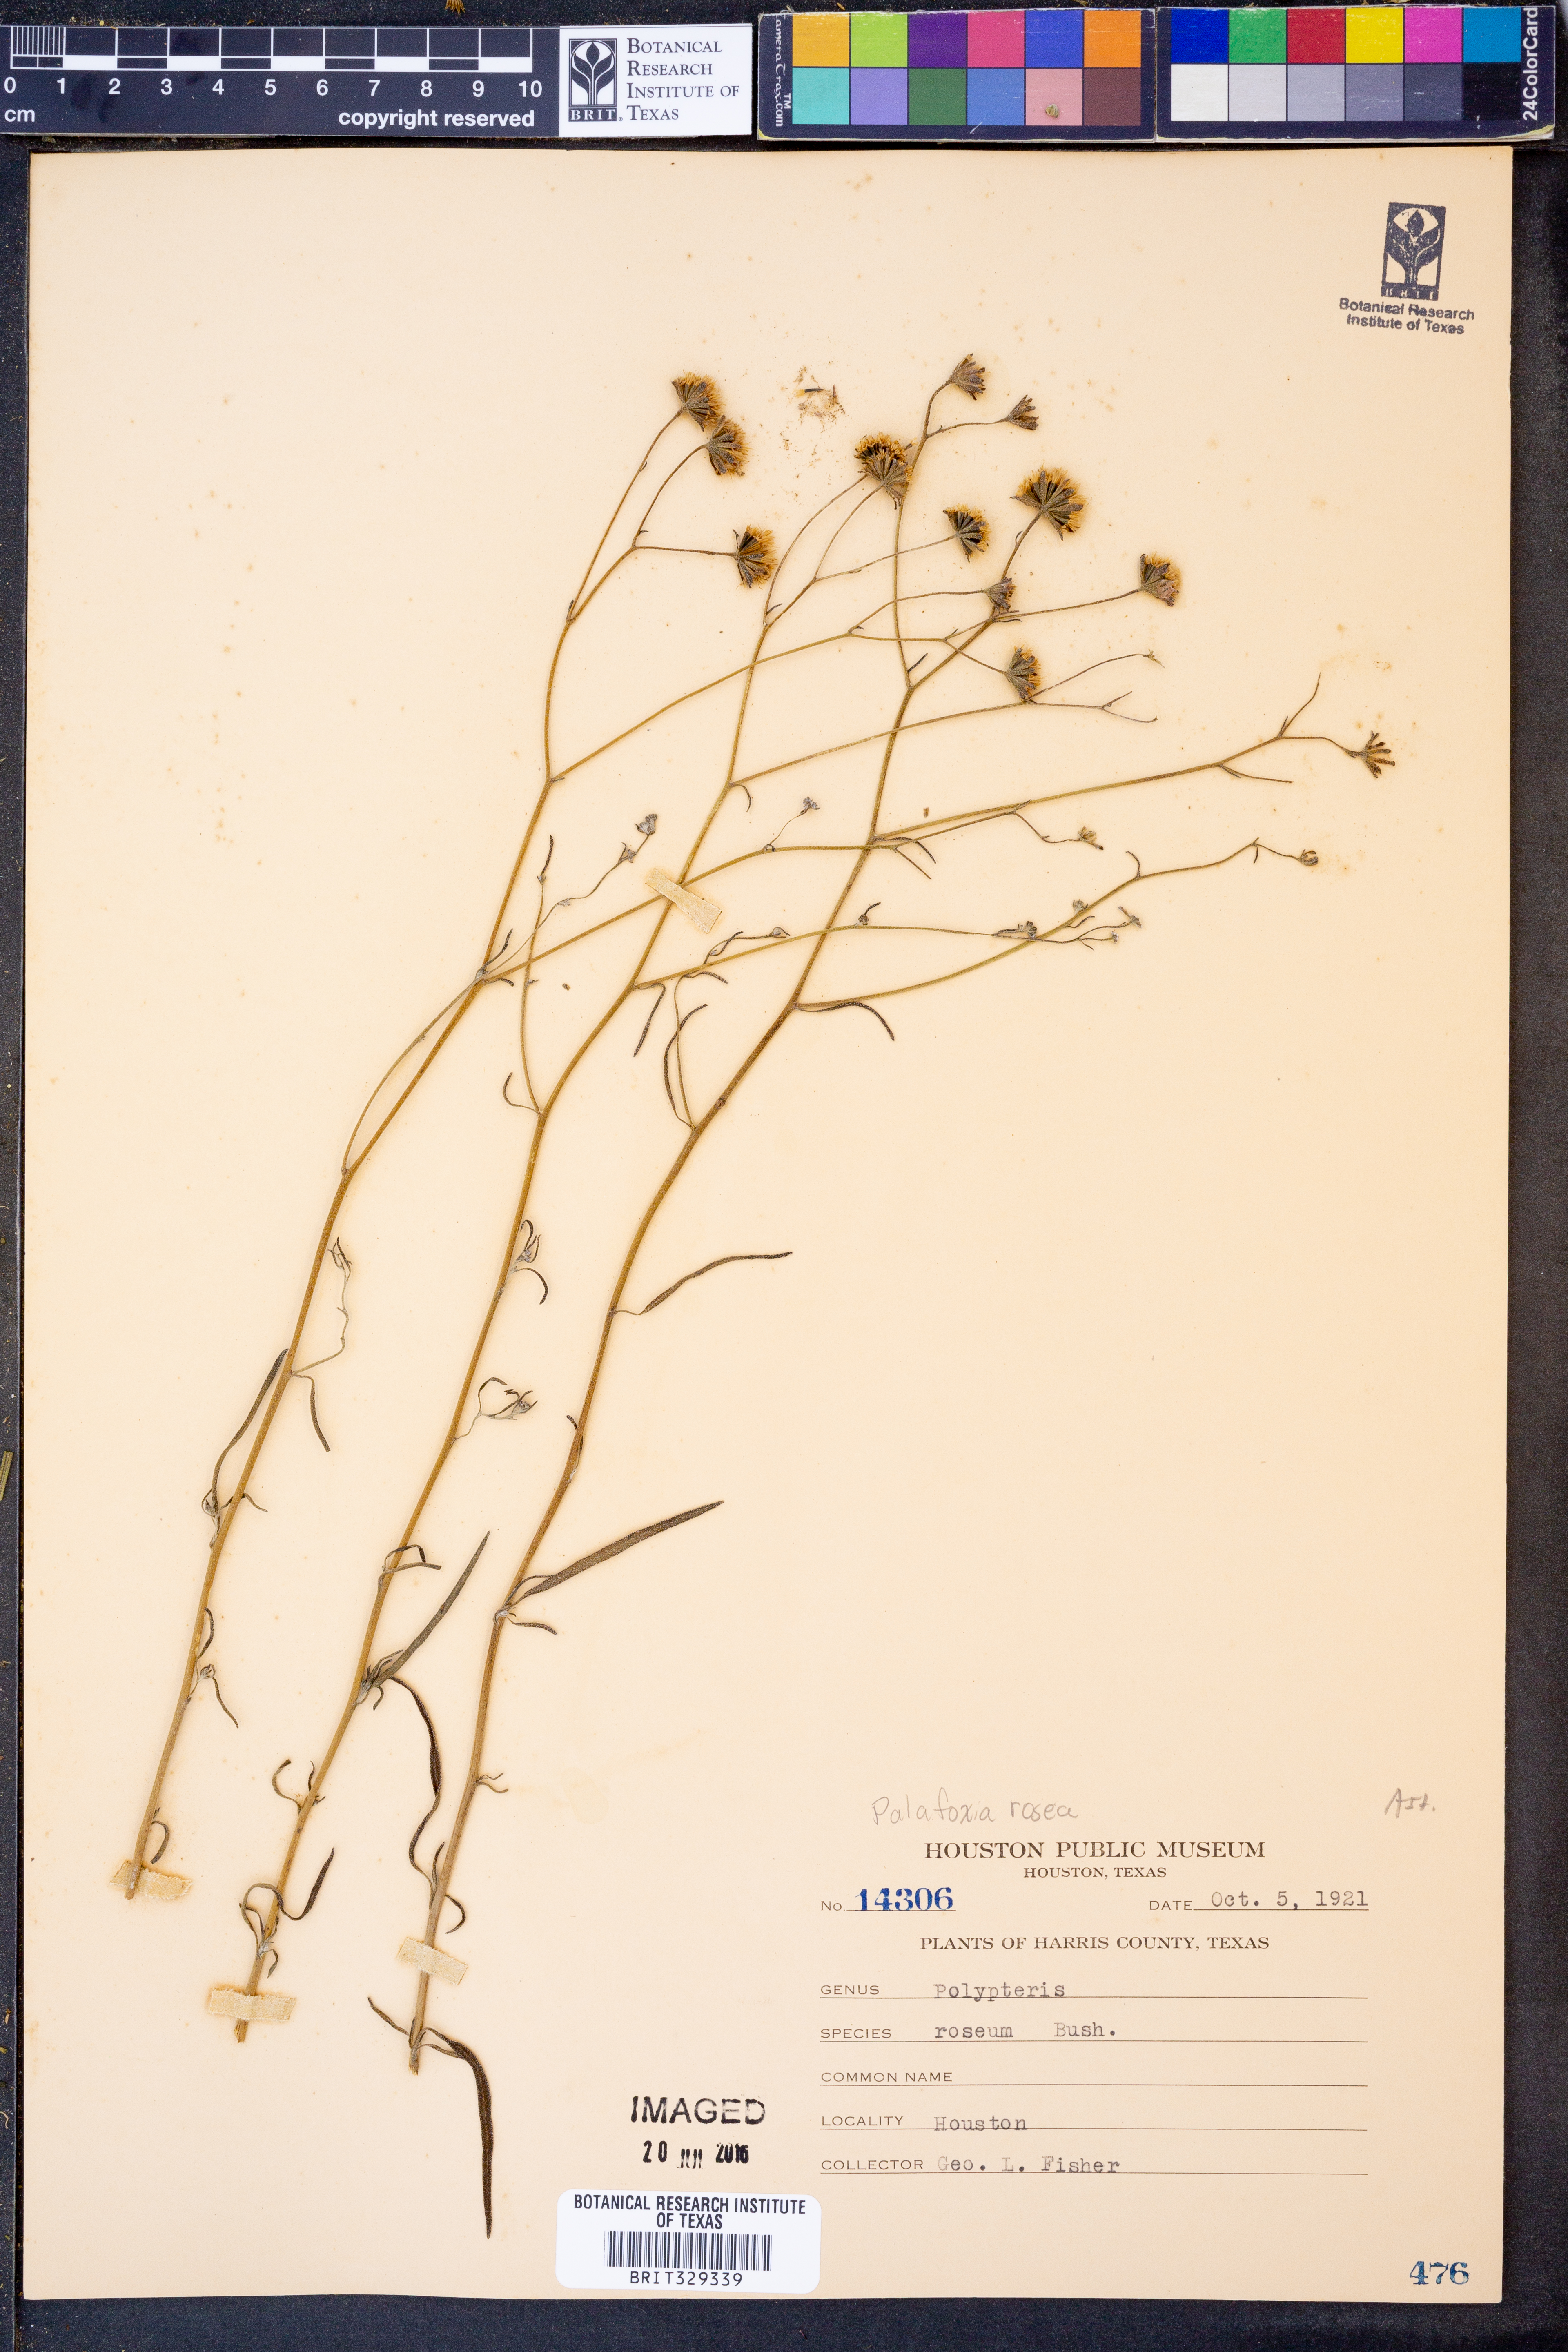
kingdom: Plantae
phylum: Tracheophyta
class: Magnoliopsida
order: Asterales
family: Asteraceae
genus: Palafoxia
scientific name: Palafoxia rosea
